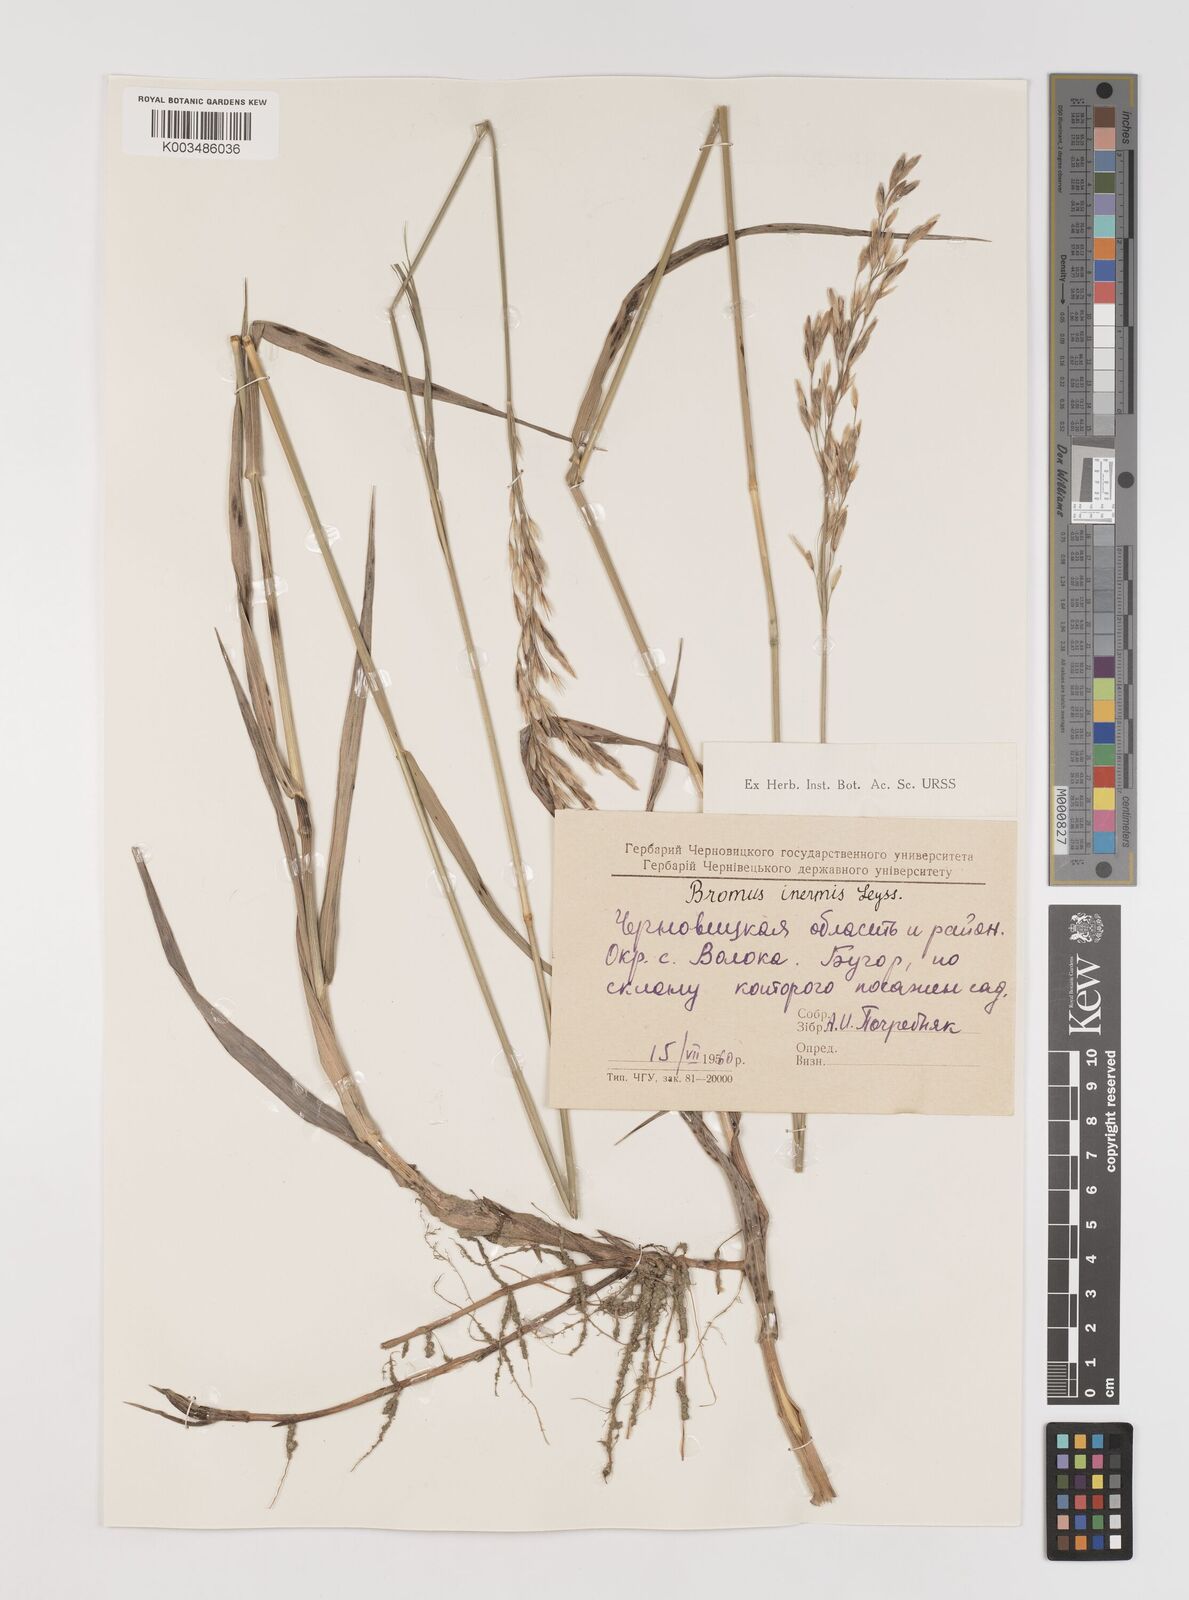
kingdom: Plantae
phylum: Tracheophyta
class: Liliopsida
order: Poales
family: Poaceae
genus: Bromus
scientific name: Bromus inermis
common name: Smooth brome
